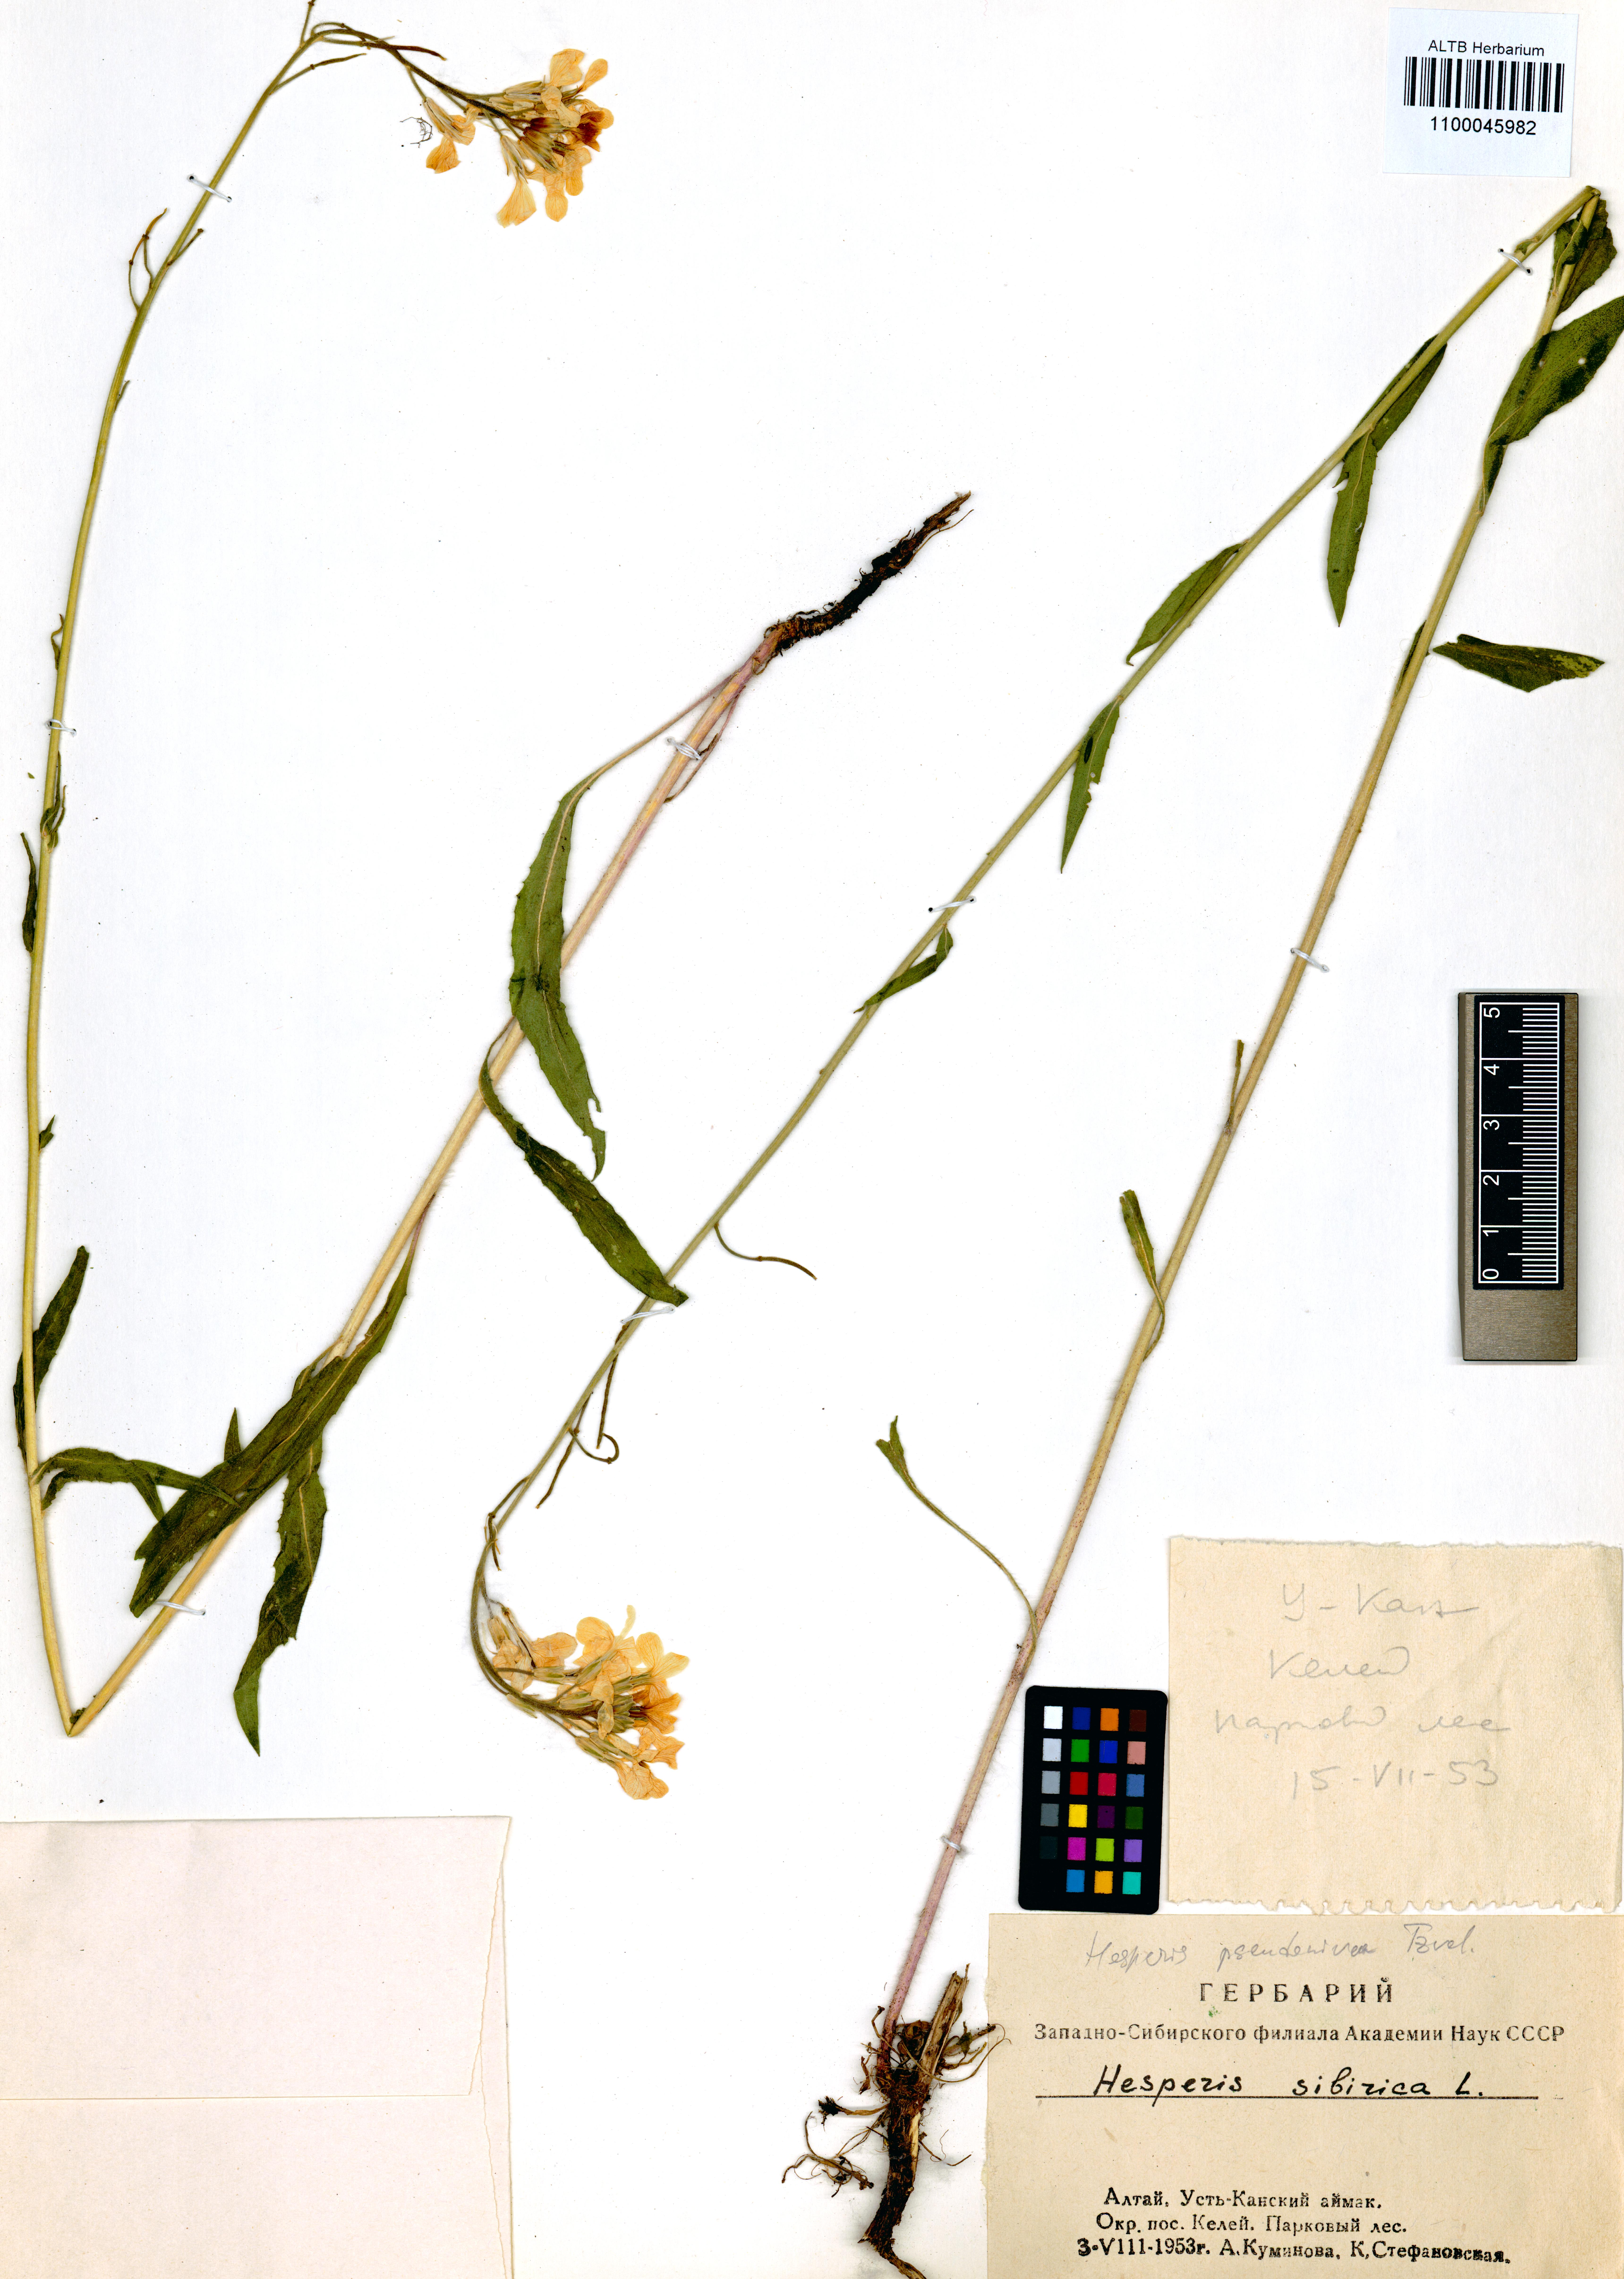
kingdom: Plantae
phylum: Tracheophyta
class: Magnoliopsida
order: Brassicales
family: Brassicaceae
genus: Hesperis
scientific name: Hesperis sibirica
